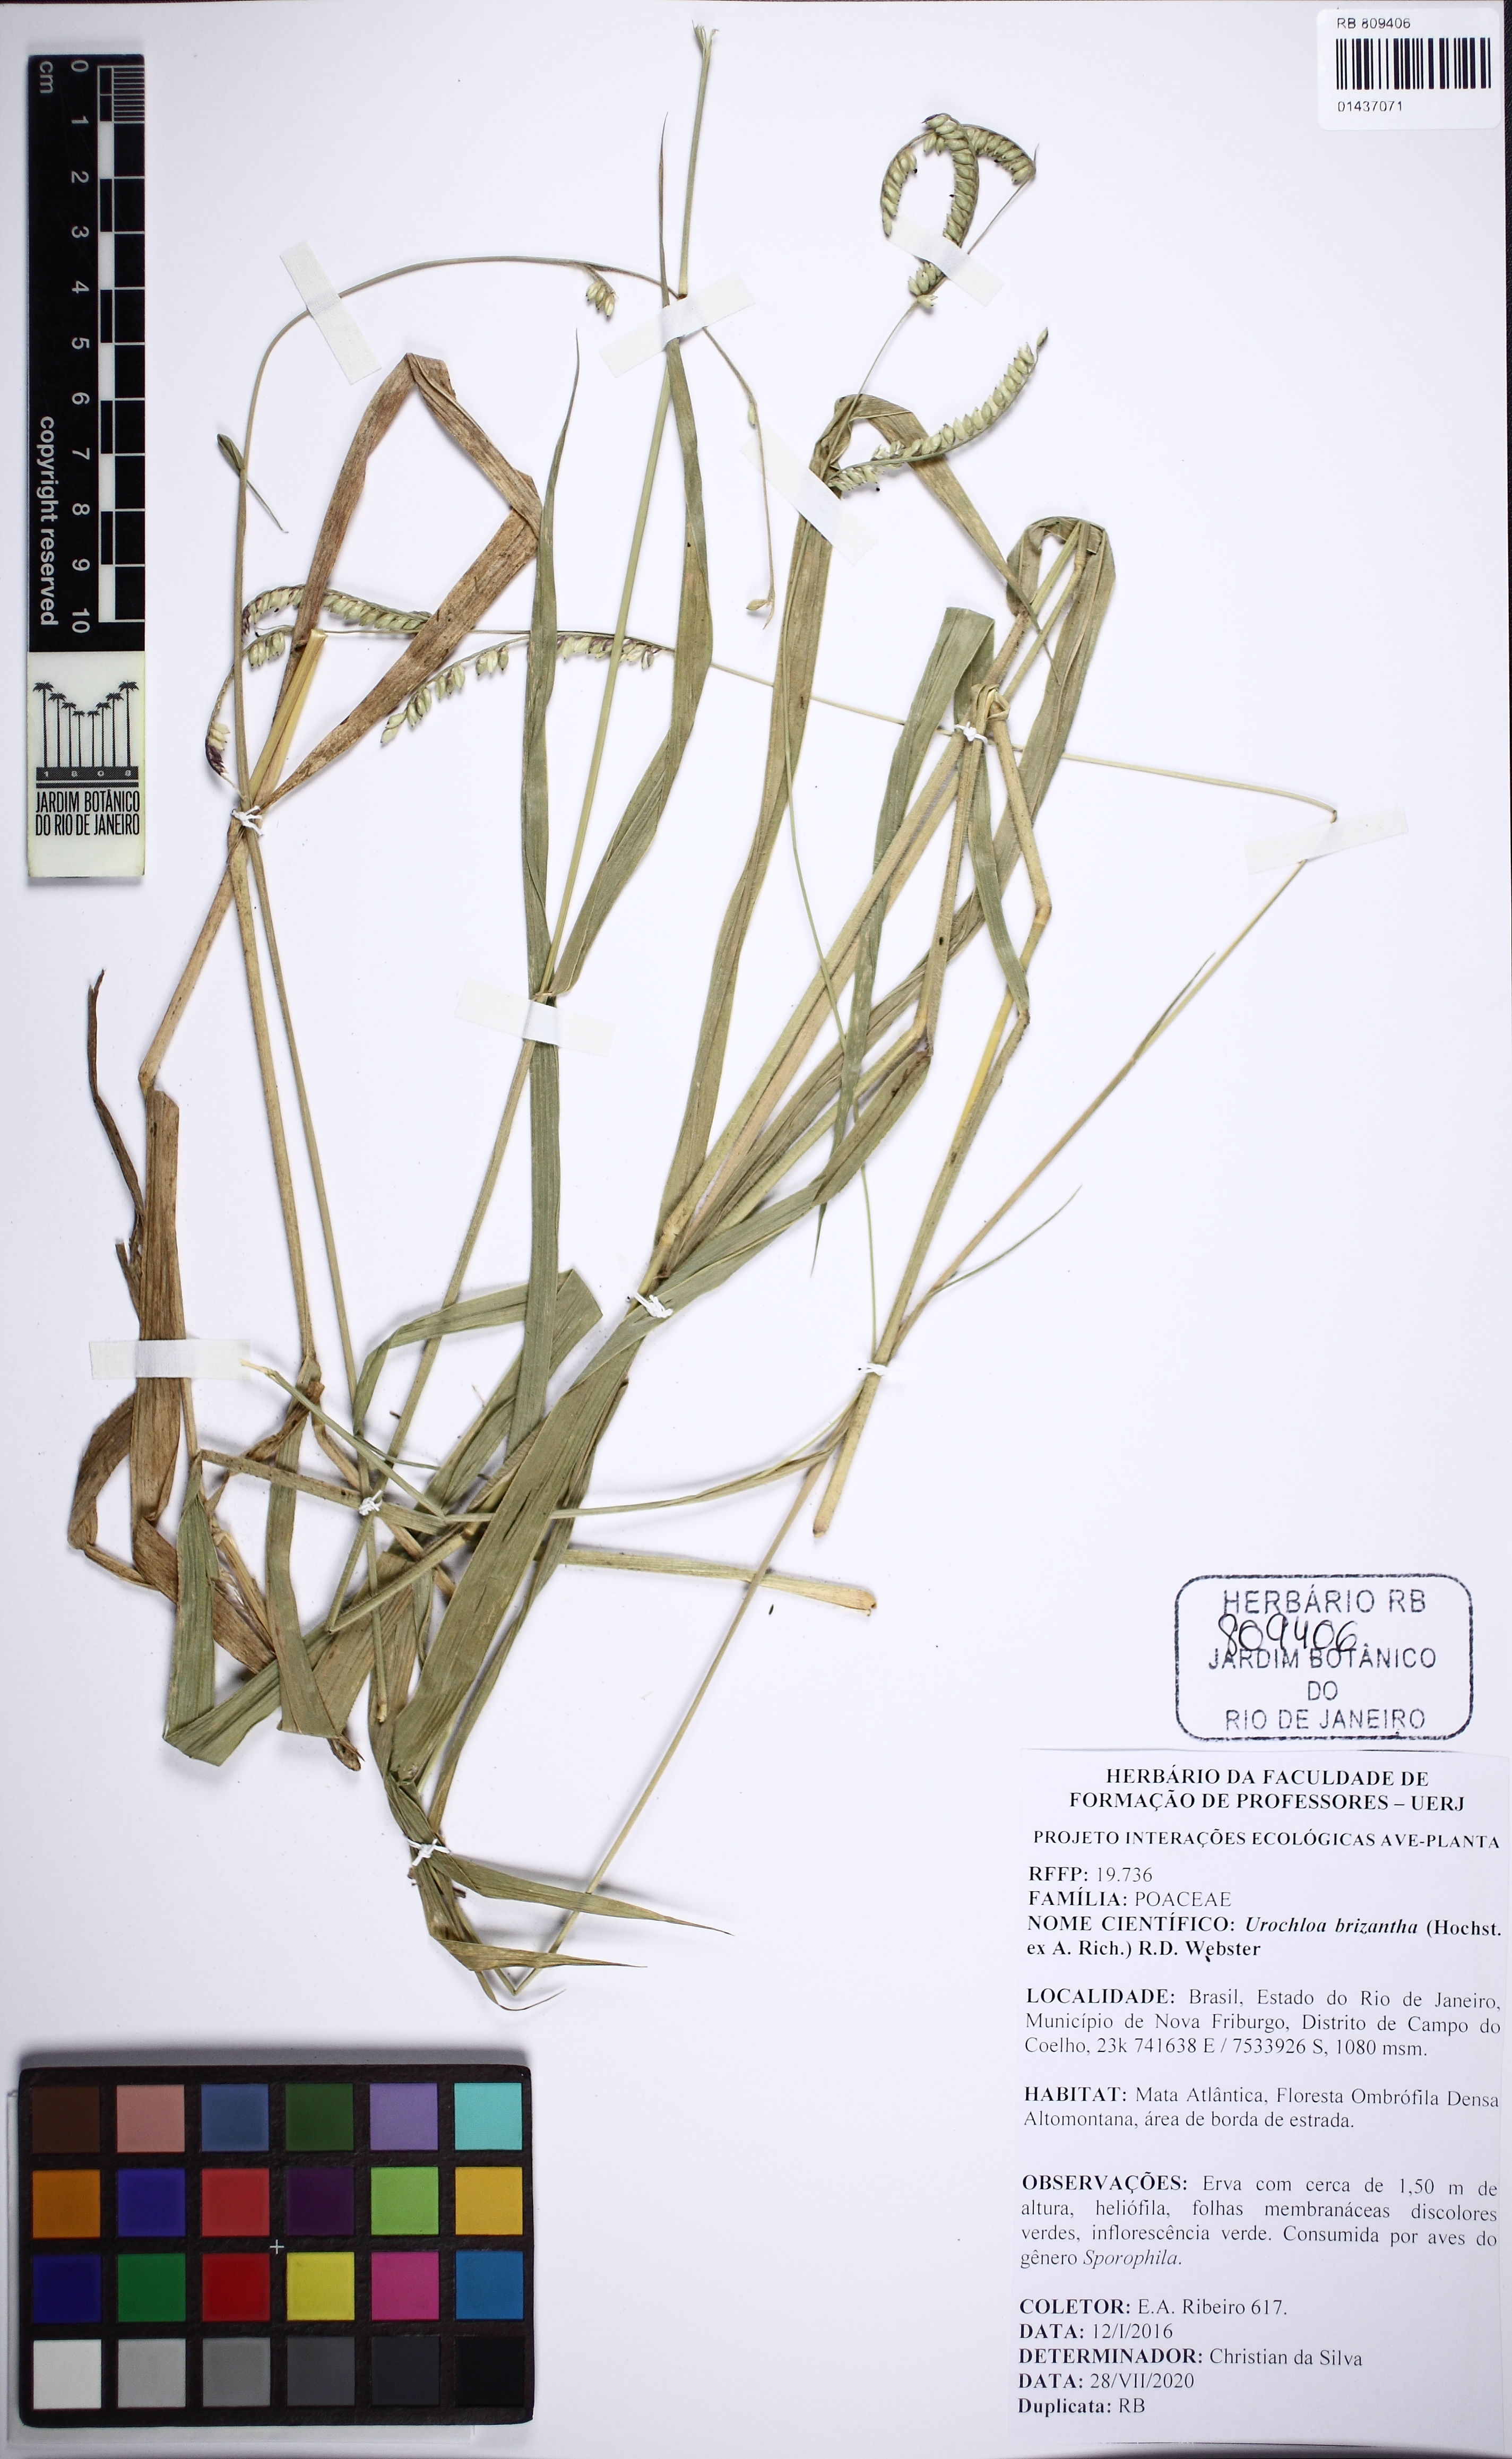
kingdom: Plantae
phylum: Tracheophyta
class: Liliopsida
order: Poales
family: Poaceae
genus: Urochloa
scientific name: Urochloa brizantha
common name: Palisade signalgrass
